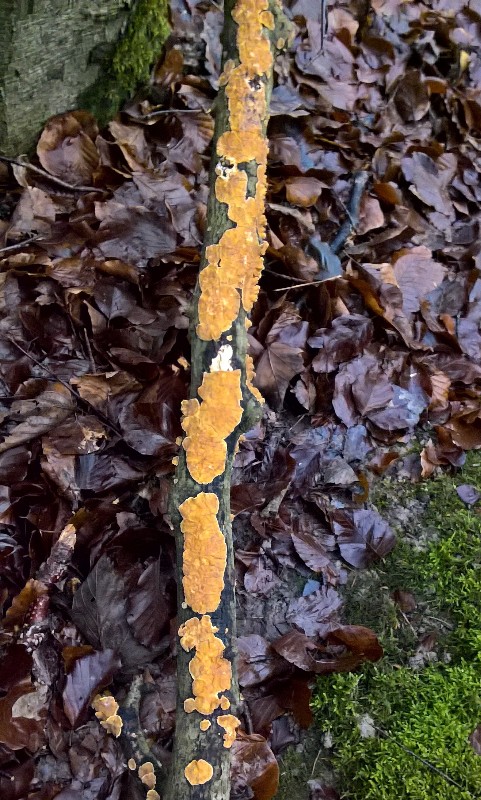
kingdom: Fungi
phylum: Basidiomycota
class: Agaricomycetes
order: Russulales
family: Stereaceae
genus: Stereum
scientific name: Stereum hirsutum
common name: håret lædersvamp
